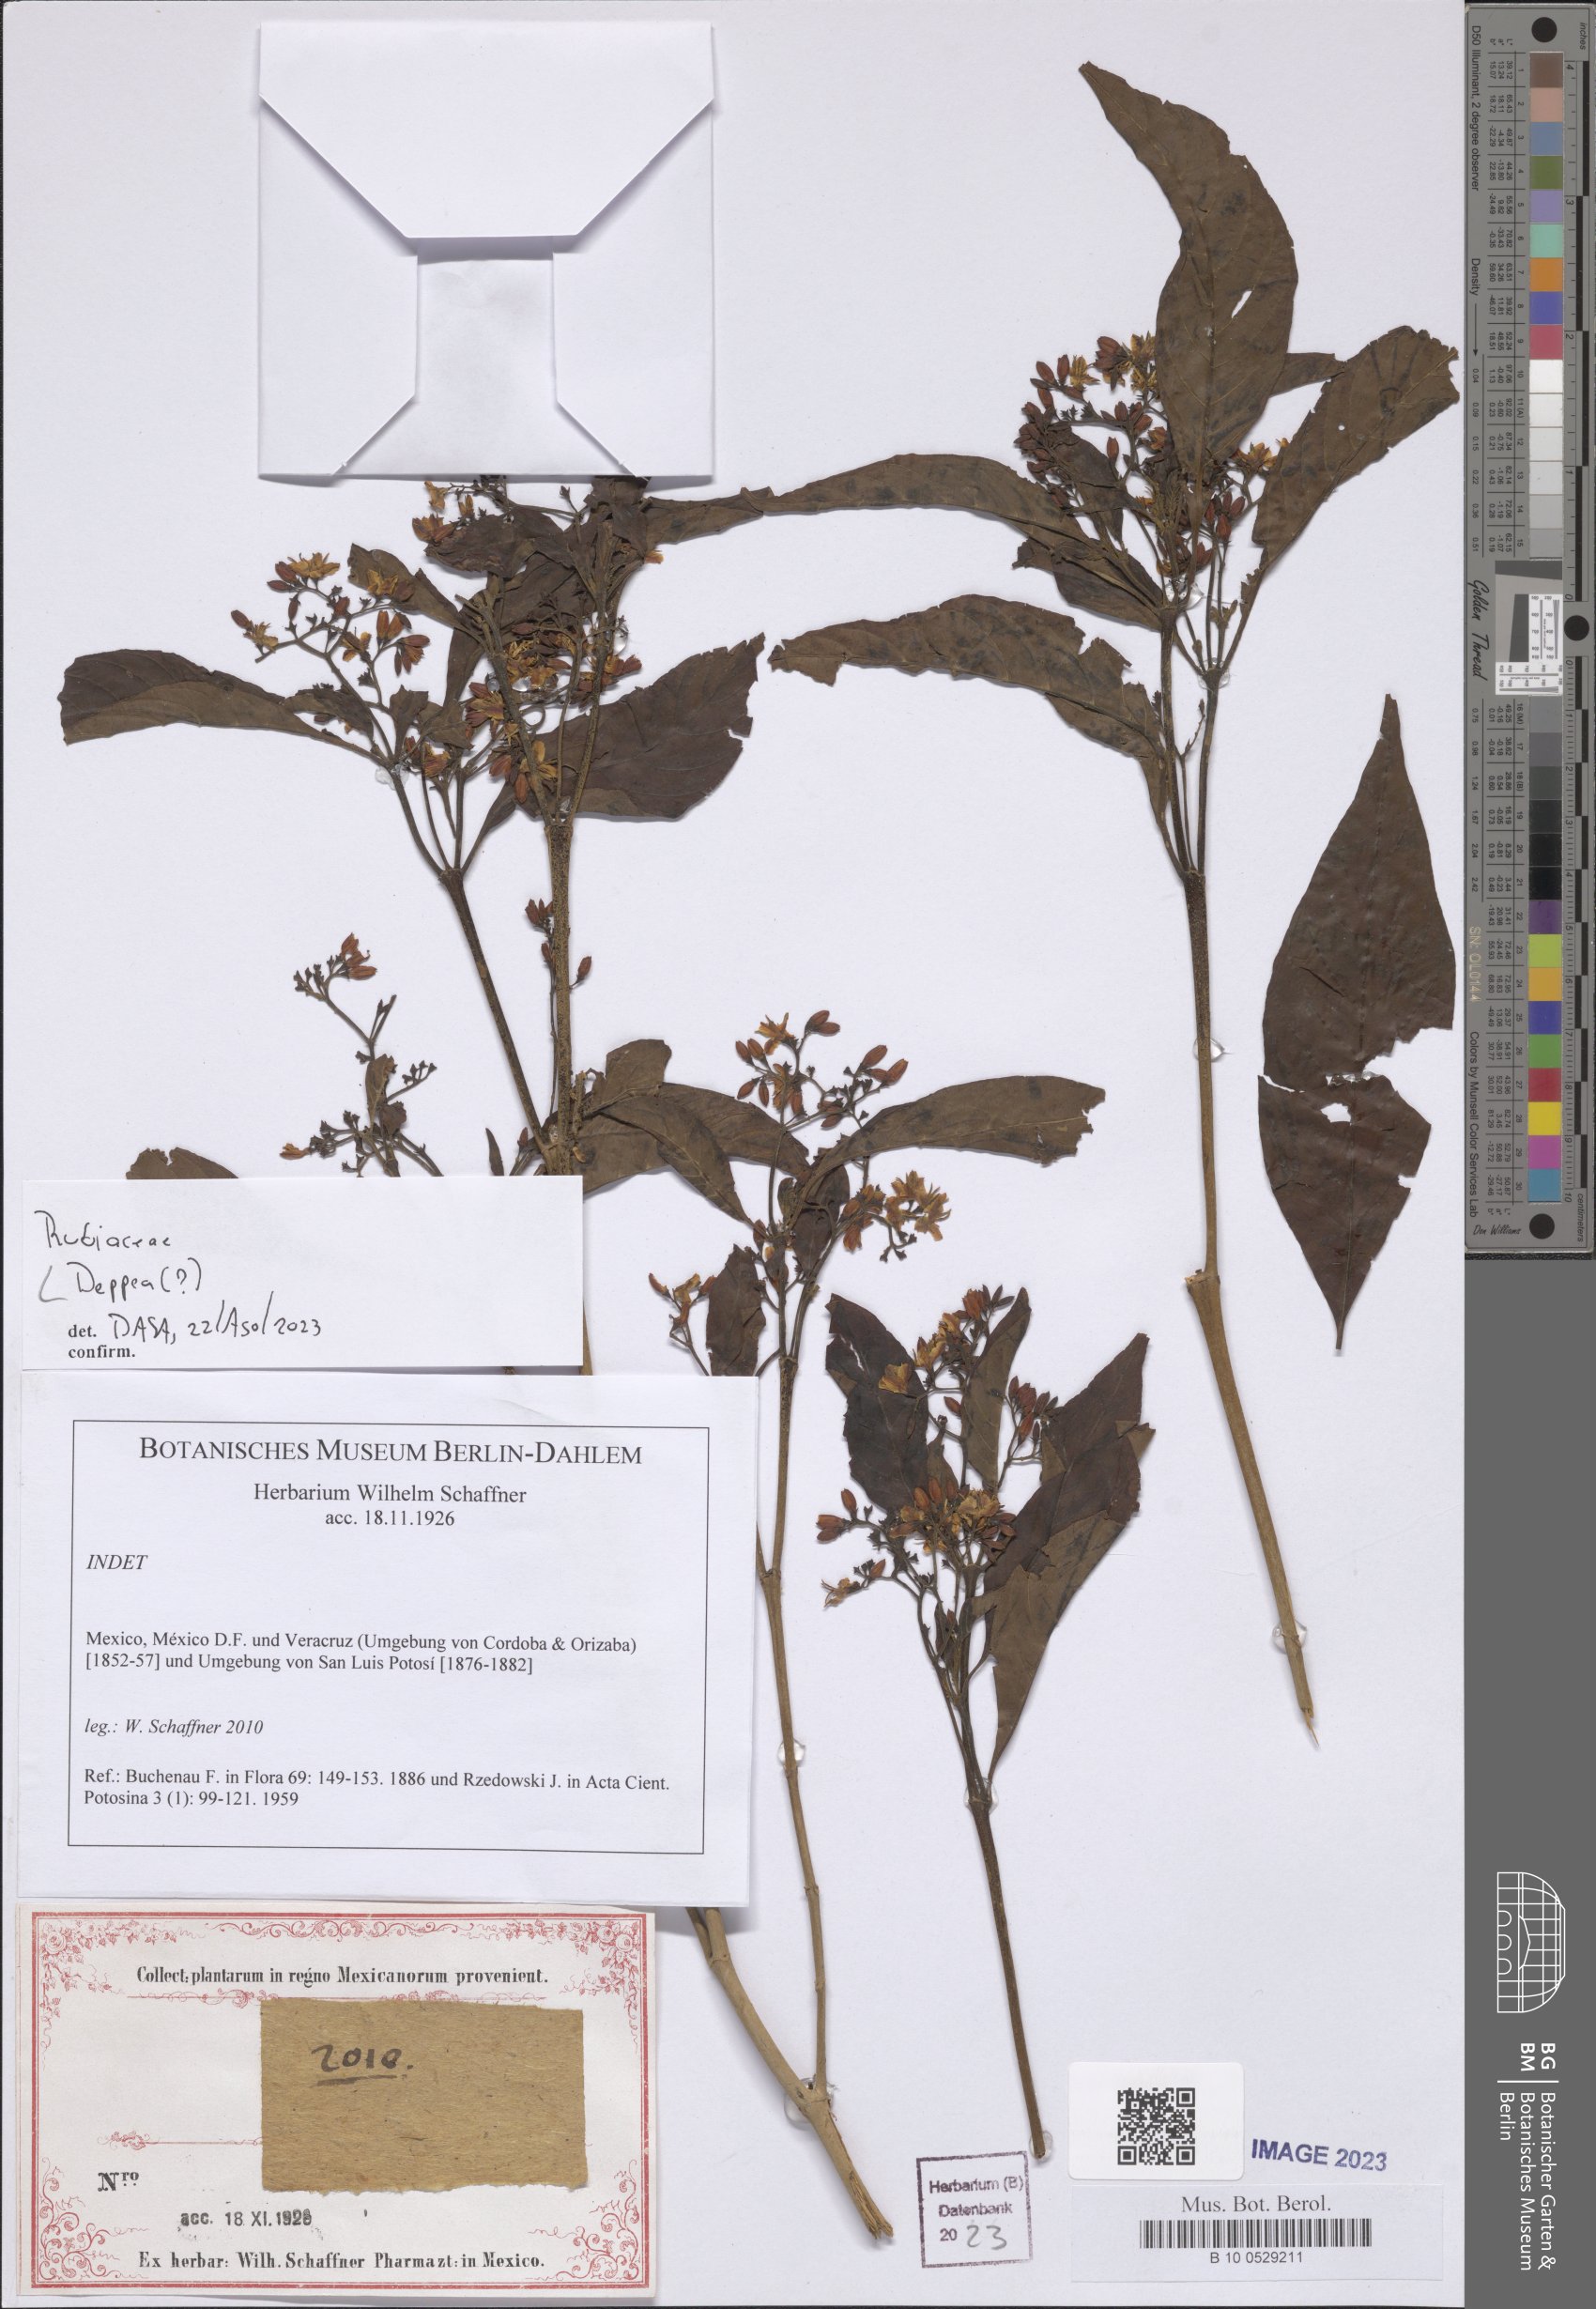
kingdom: Plantae
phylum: Tracheophyta
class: Magnoliopsida
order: Gentianales
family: Rubiaceae
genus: Deppea
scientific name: Deppea
